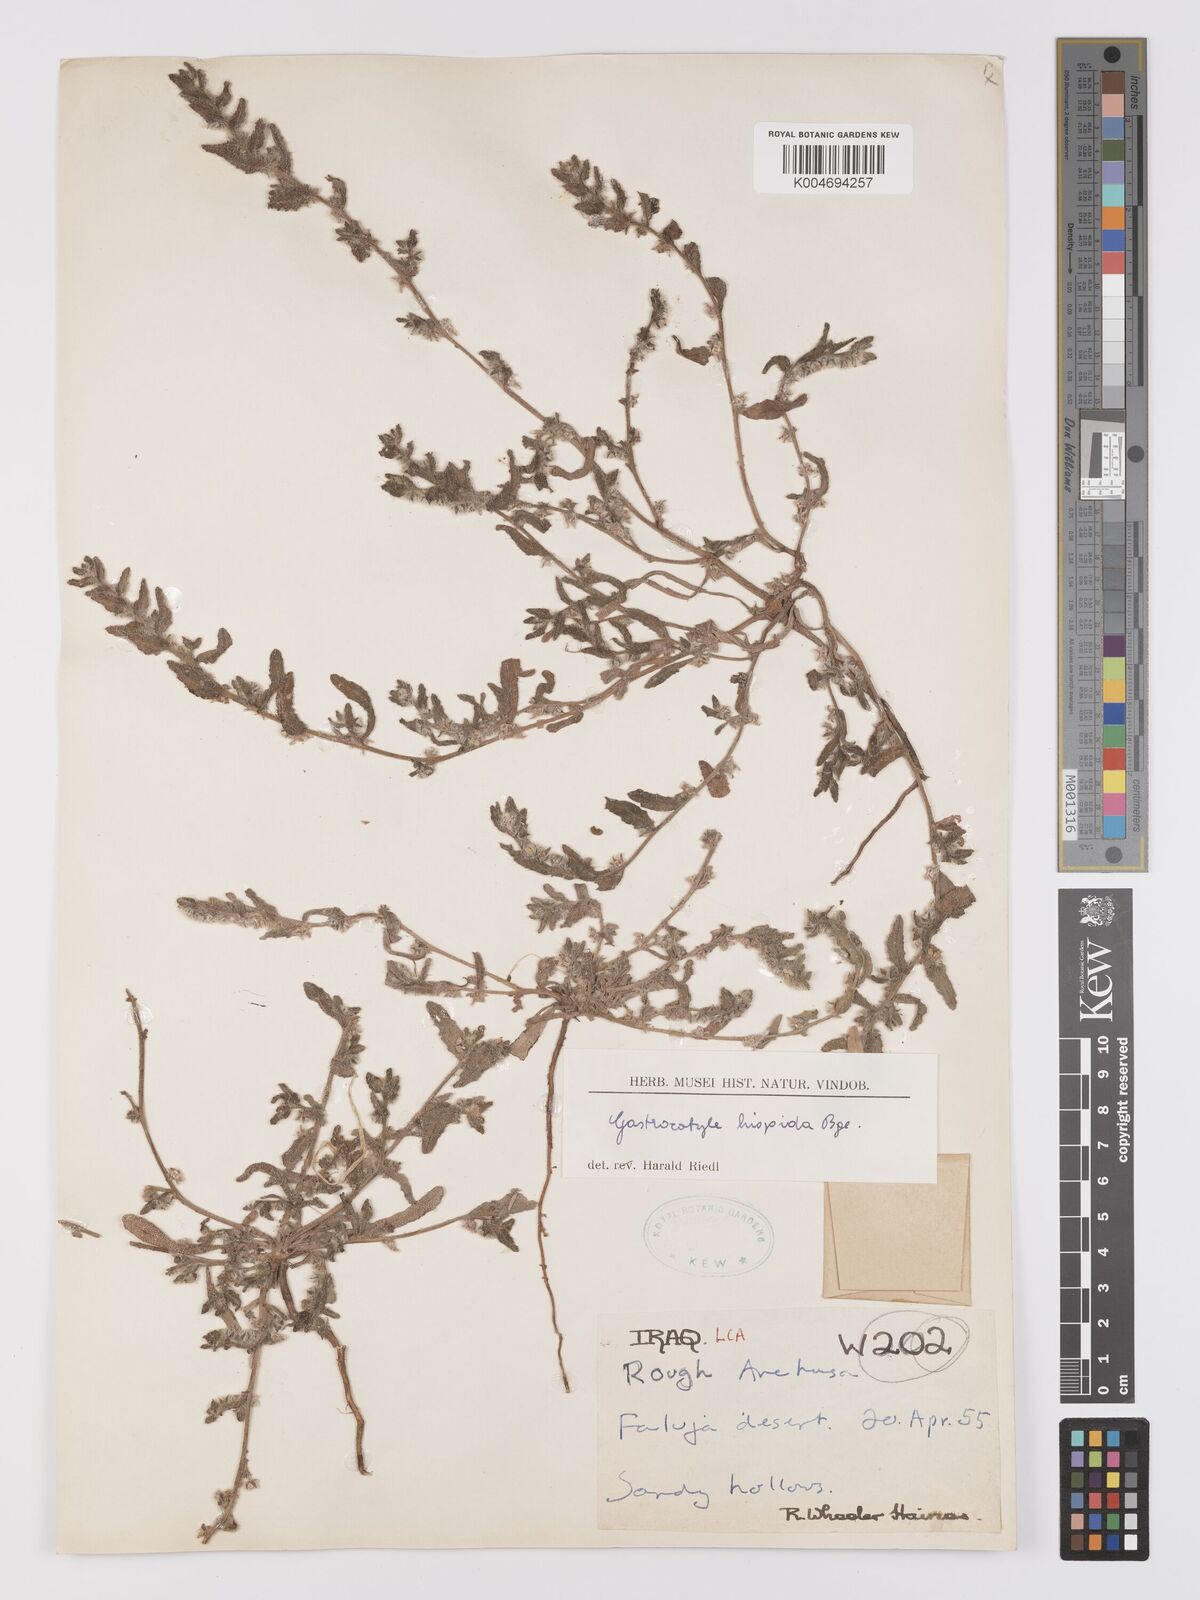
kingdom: Plantae
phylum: Tracheophyta
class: Magnoliopsida
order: Boraginales
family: Boraginaceae
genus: Gastrocotyle
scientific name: Gastrocotyle hispida
